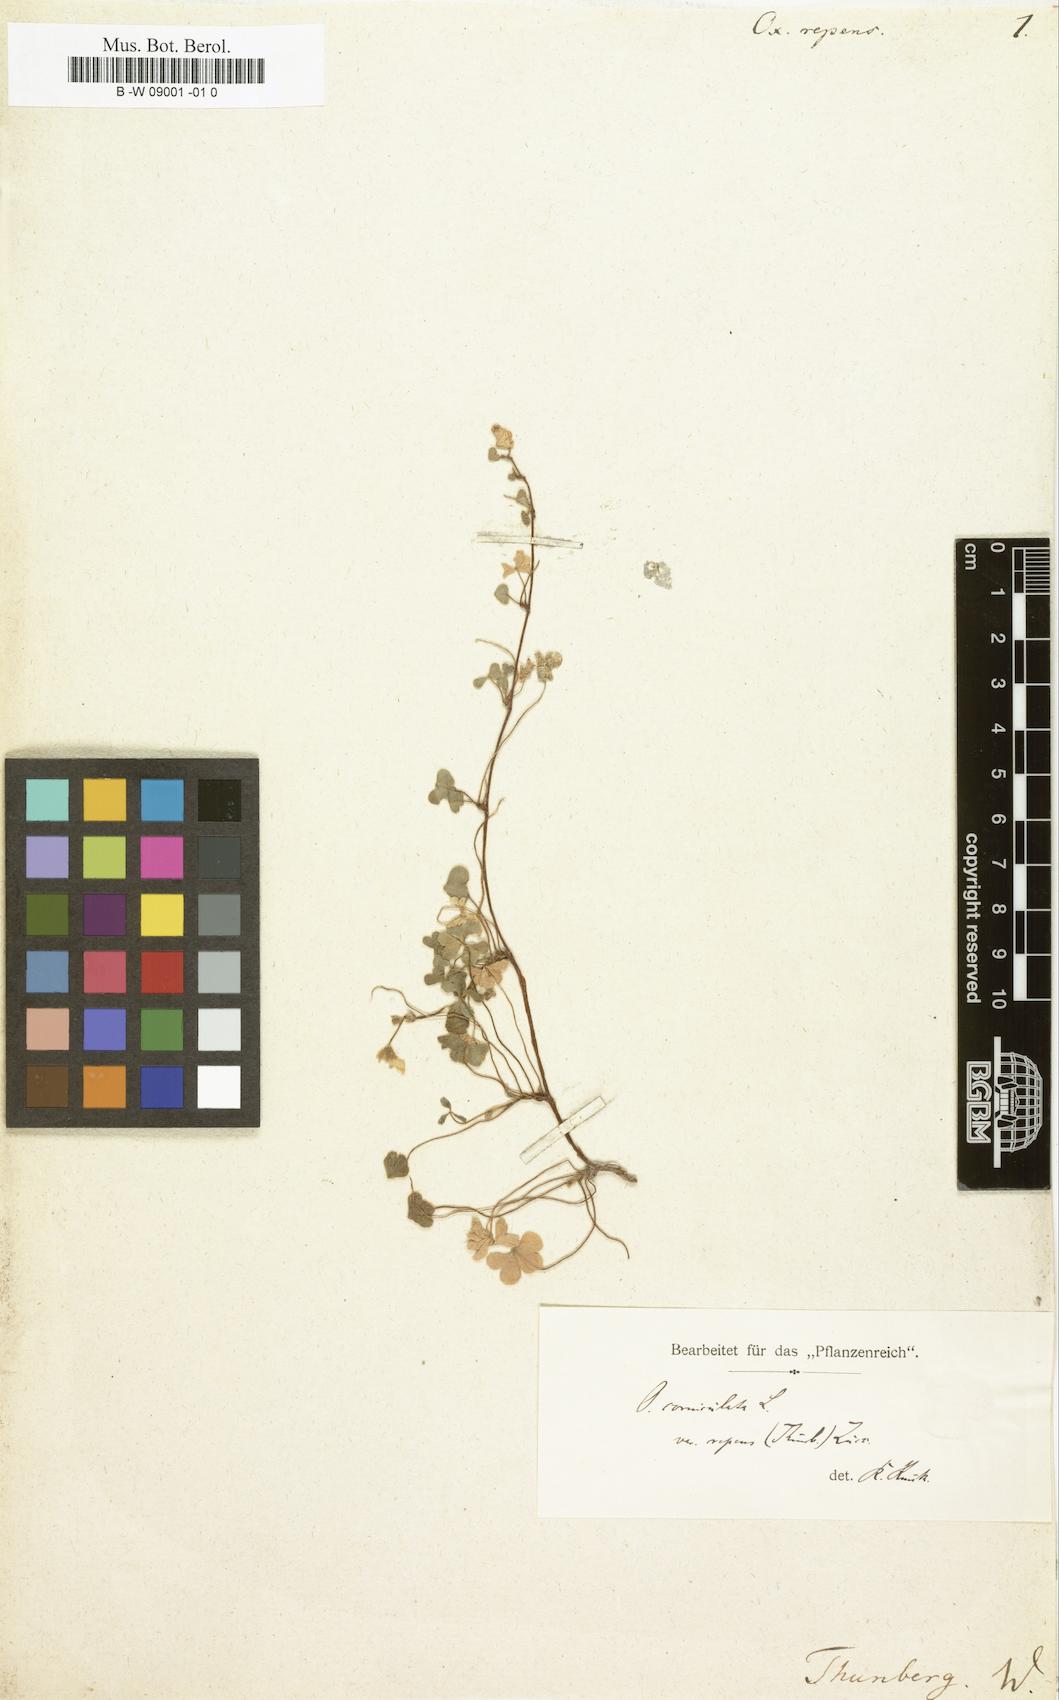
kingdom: Plantae
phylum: Tracheophyta
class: Magnoliopsida
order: Oxalidales
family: Oxalidaceae
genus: Oxalis
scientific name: Oxalis corniculata
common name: Procumbent yellow-sorrel
